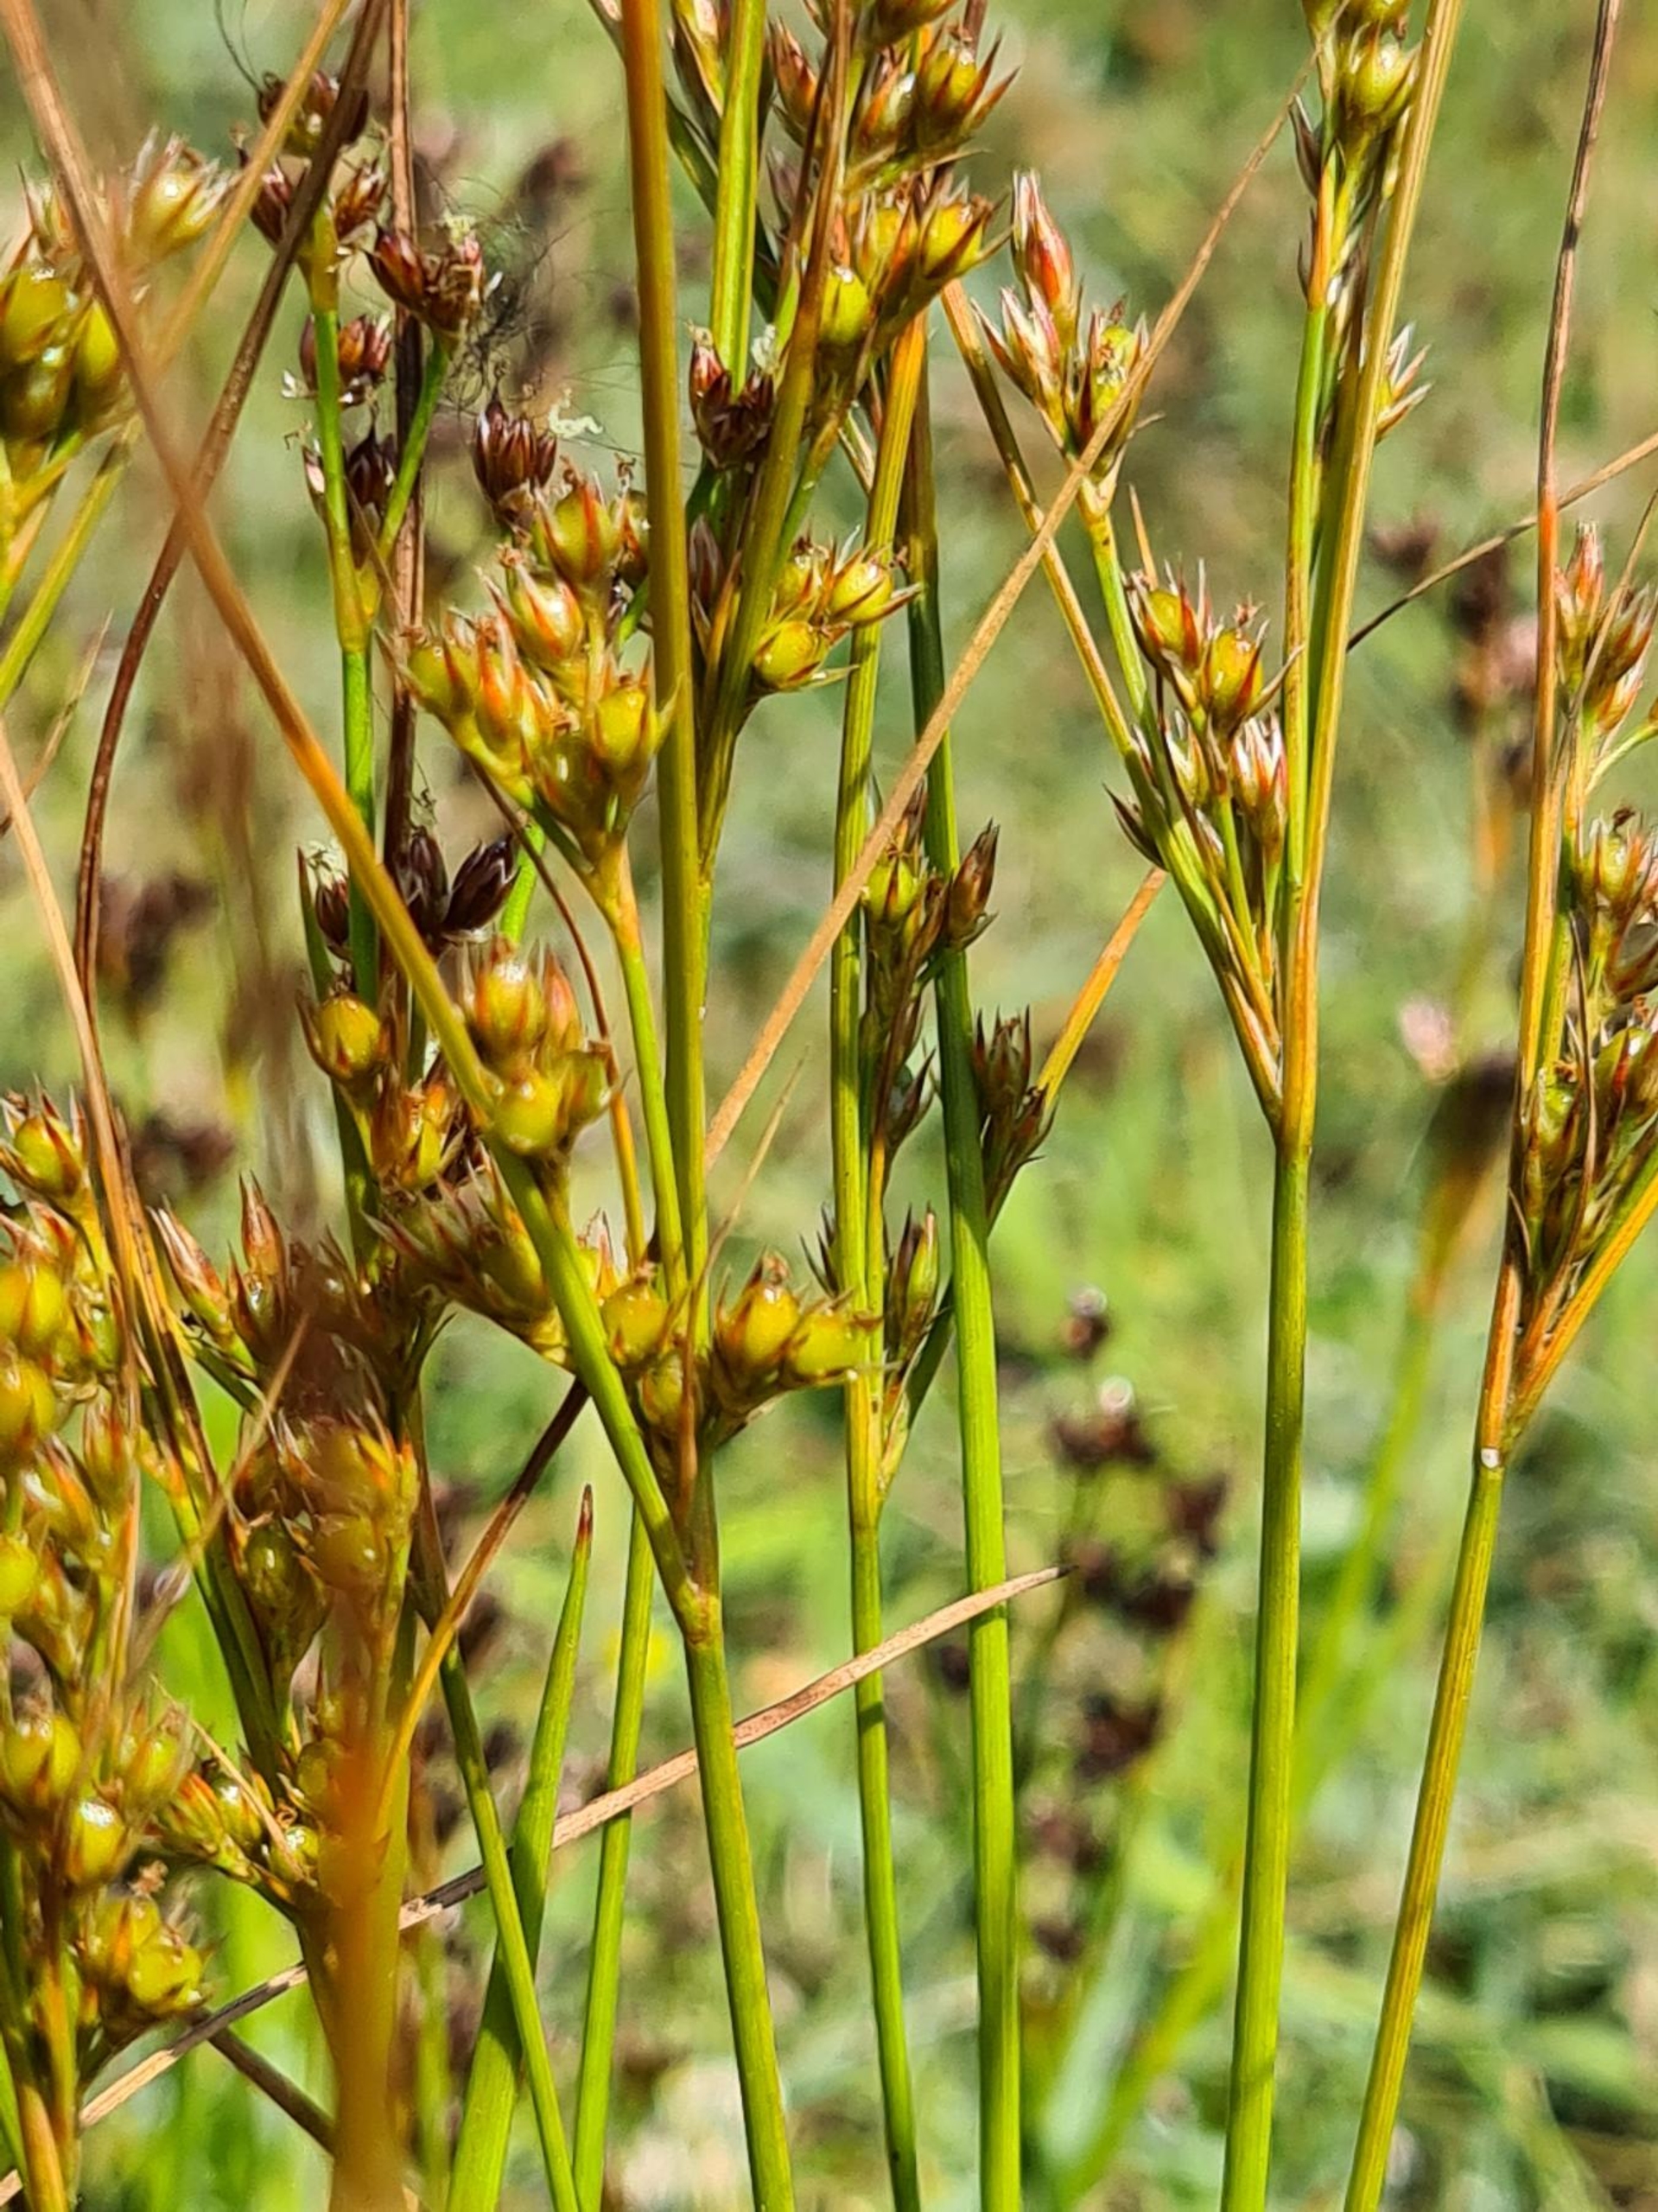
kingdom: Plantae
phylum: Tracheophyta
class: Liliopsida
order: Poales
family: Juncaceae
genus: Juncus
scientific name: Juncus tenuis
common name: Tue-siv
